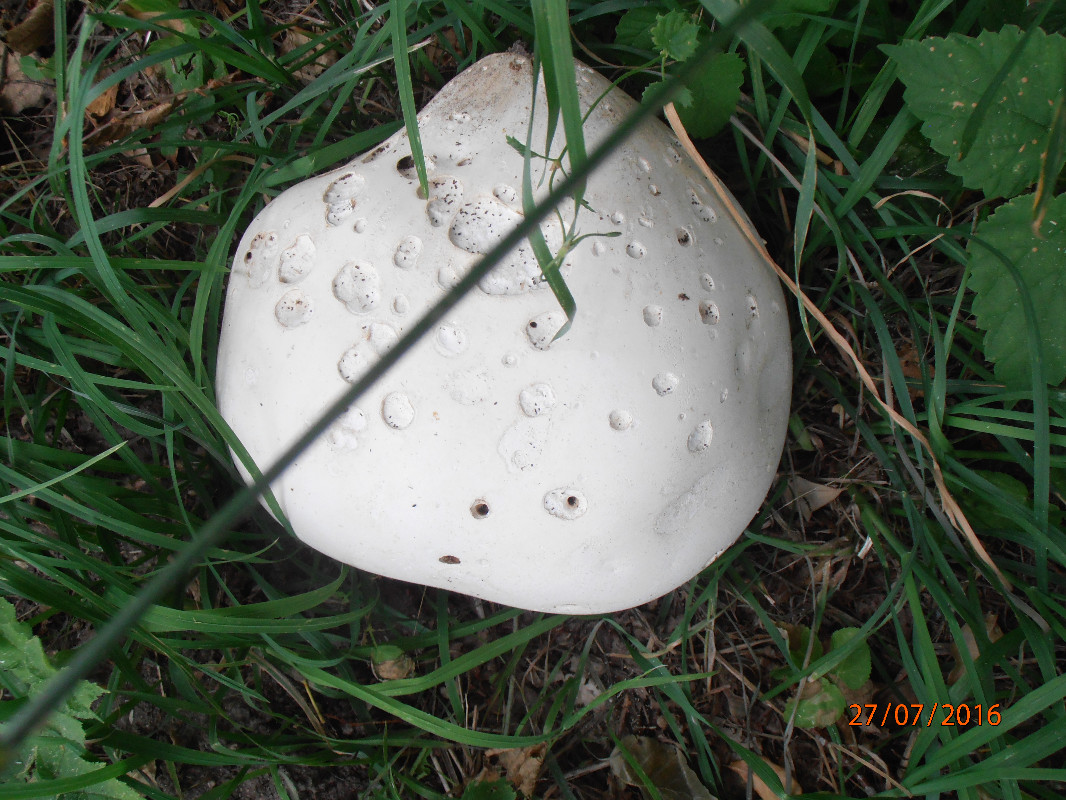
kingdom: Fungi
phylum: Basidiomycota
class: Agaricomycetes
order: Agaricales
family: Lycoperdaceae
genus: Calvatia
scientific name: Calvatia gigantea
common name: kæmpestøvbold
